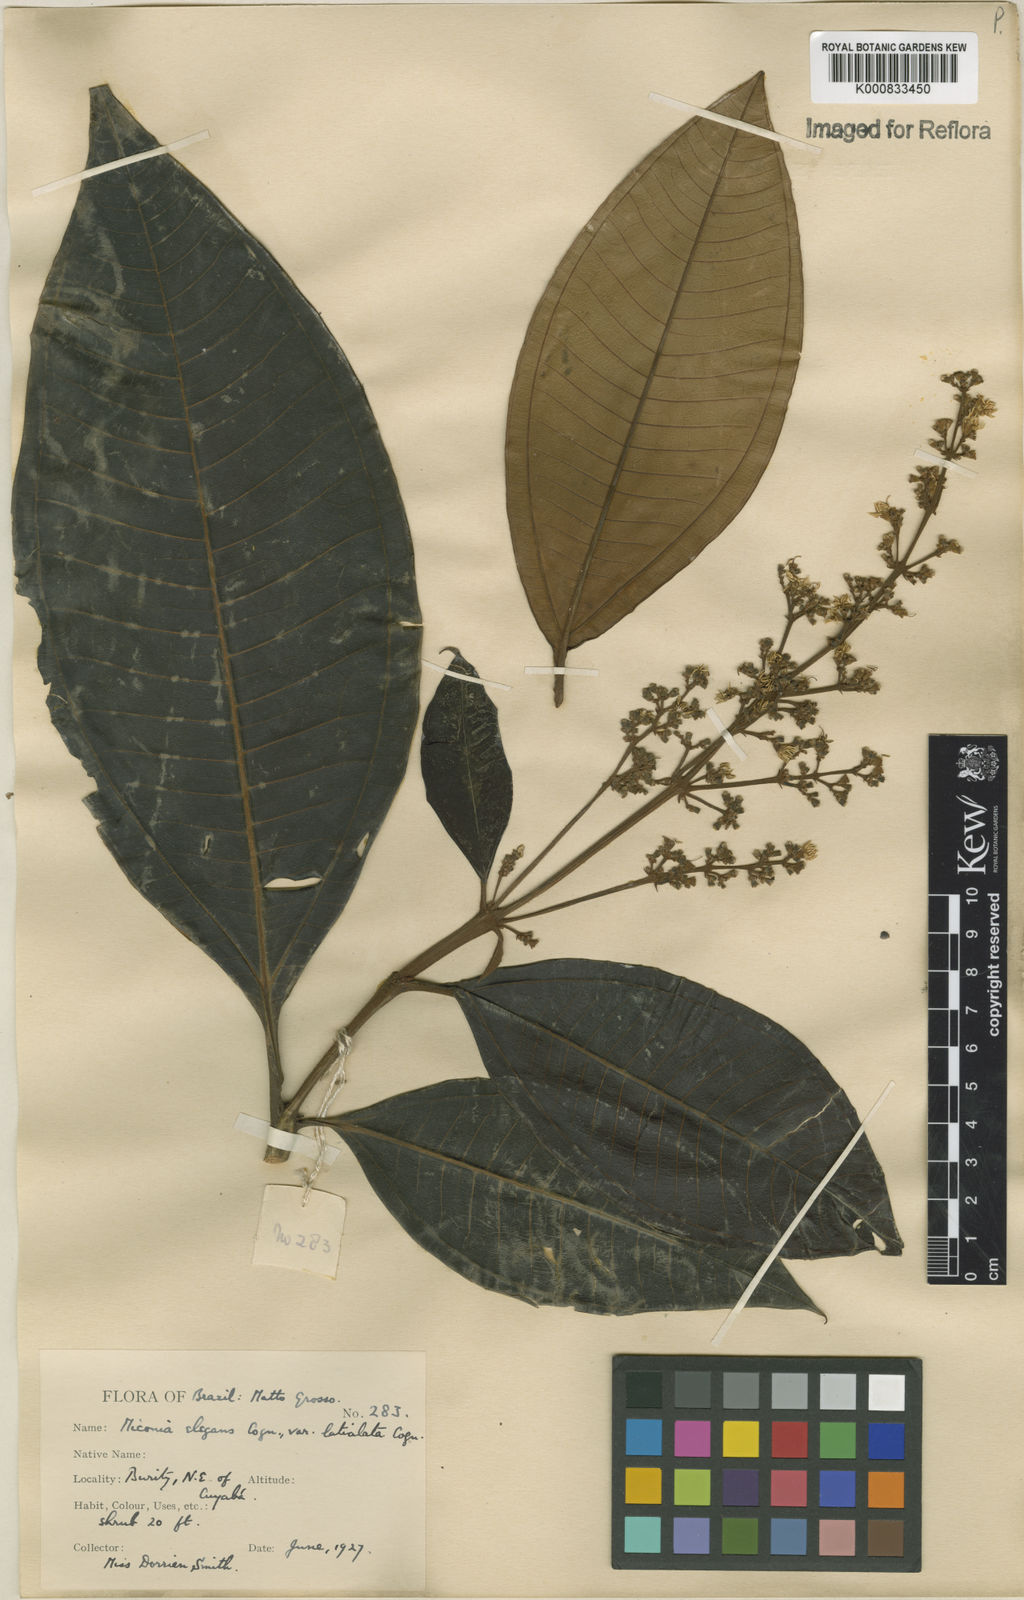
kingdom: Plantae
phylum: Tracheophyta
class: Magnoliopsida
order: Myrtales
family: Melastomataceae
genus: Miconia
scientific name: Miconia elegans
